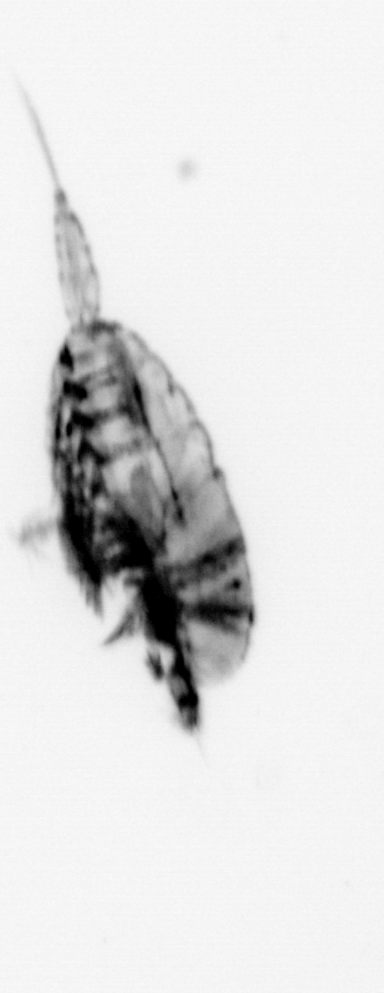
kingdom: Animalia
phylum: Arthropoda
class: Copepoda
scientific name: Copepoda
